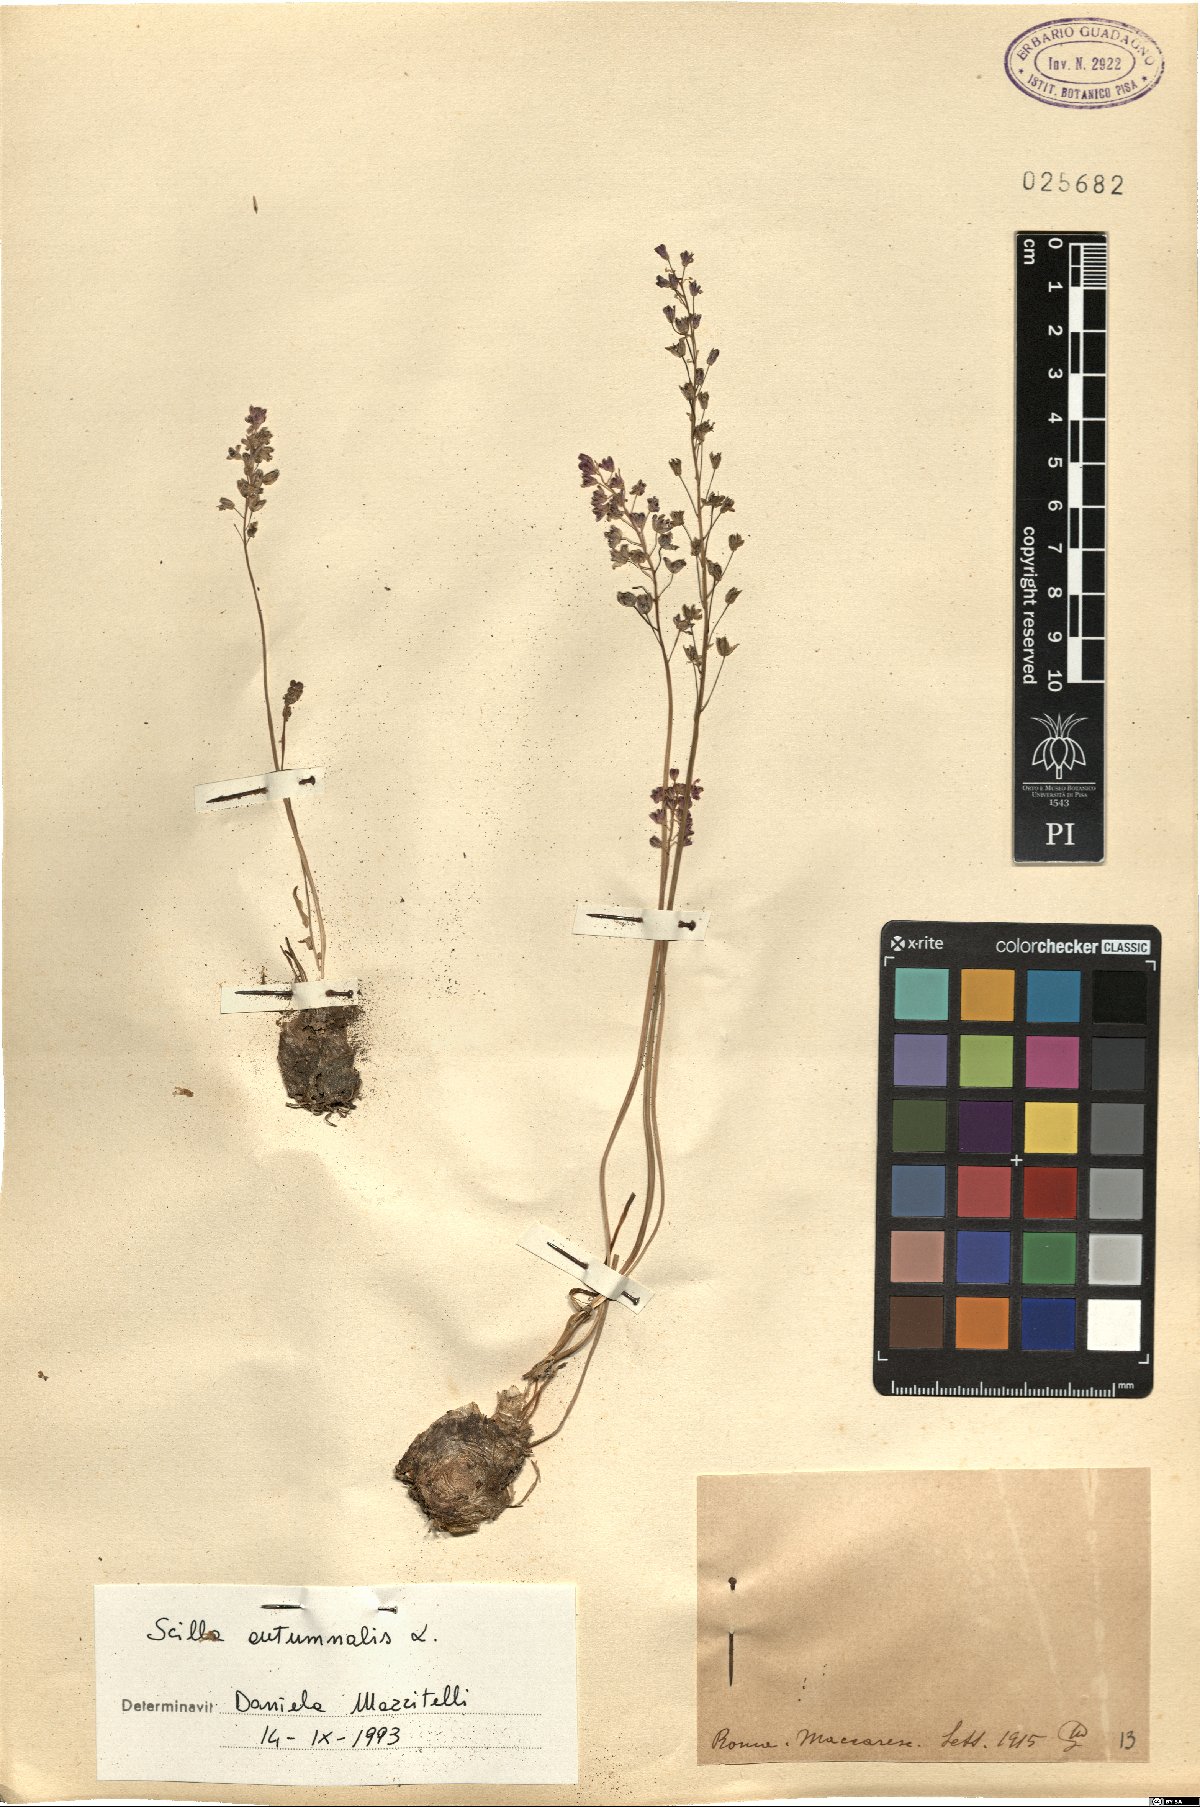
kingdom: Plantae
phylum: Tracheophyta
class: Liliopsida
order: Asparagales
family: Asparagaceae
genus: Prospero
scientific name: Prospero autumnale
